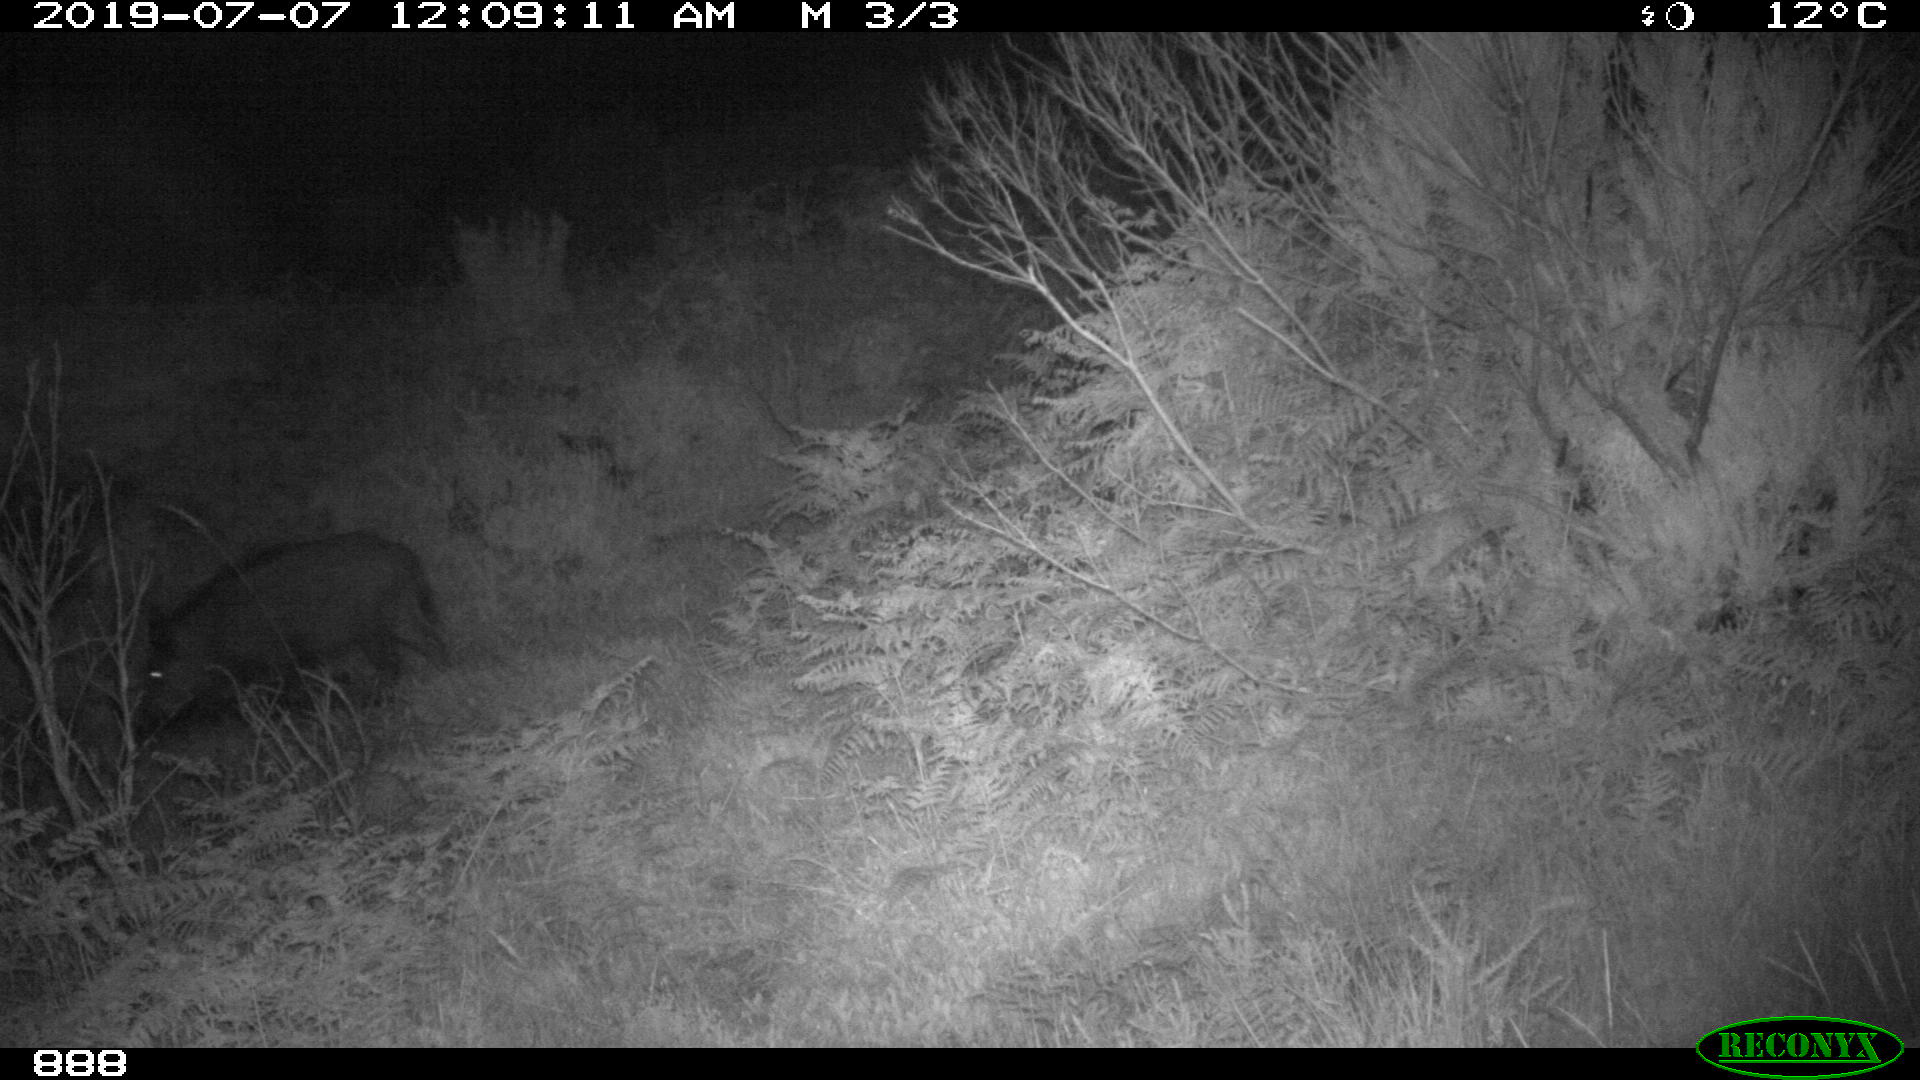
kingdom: Animalia
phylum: Chordata
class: Mammalia
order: Artiodactyla
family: Suidae
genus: Sus
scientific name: Sus scrofa
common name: Wild boar
